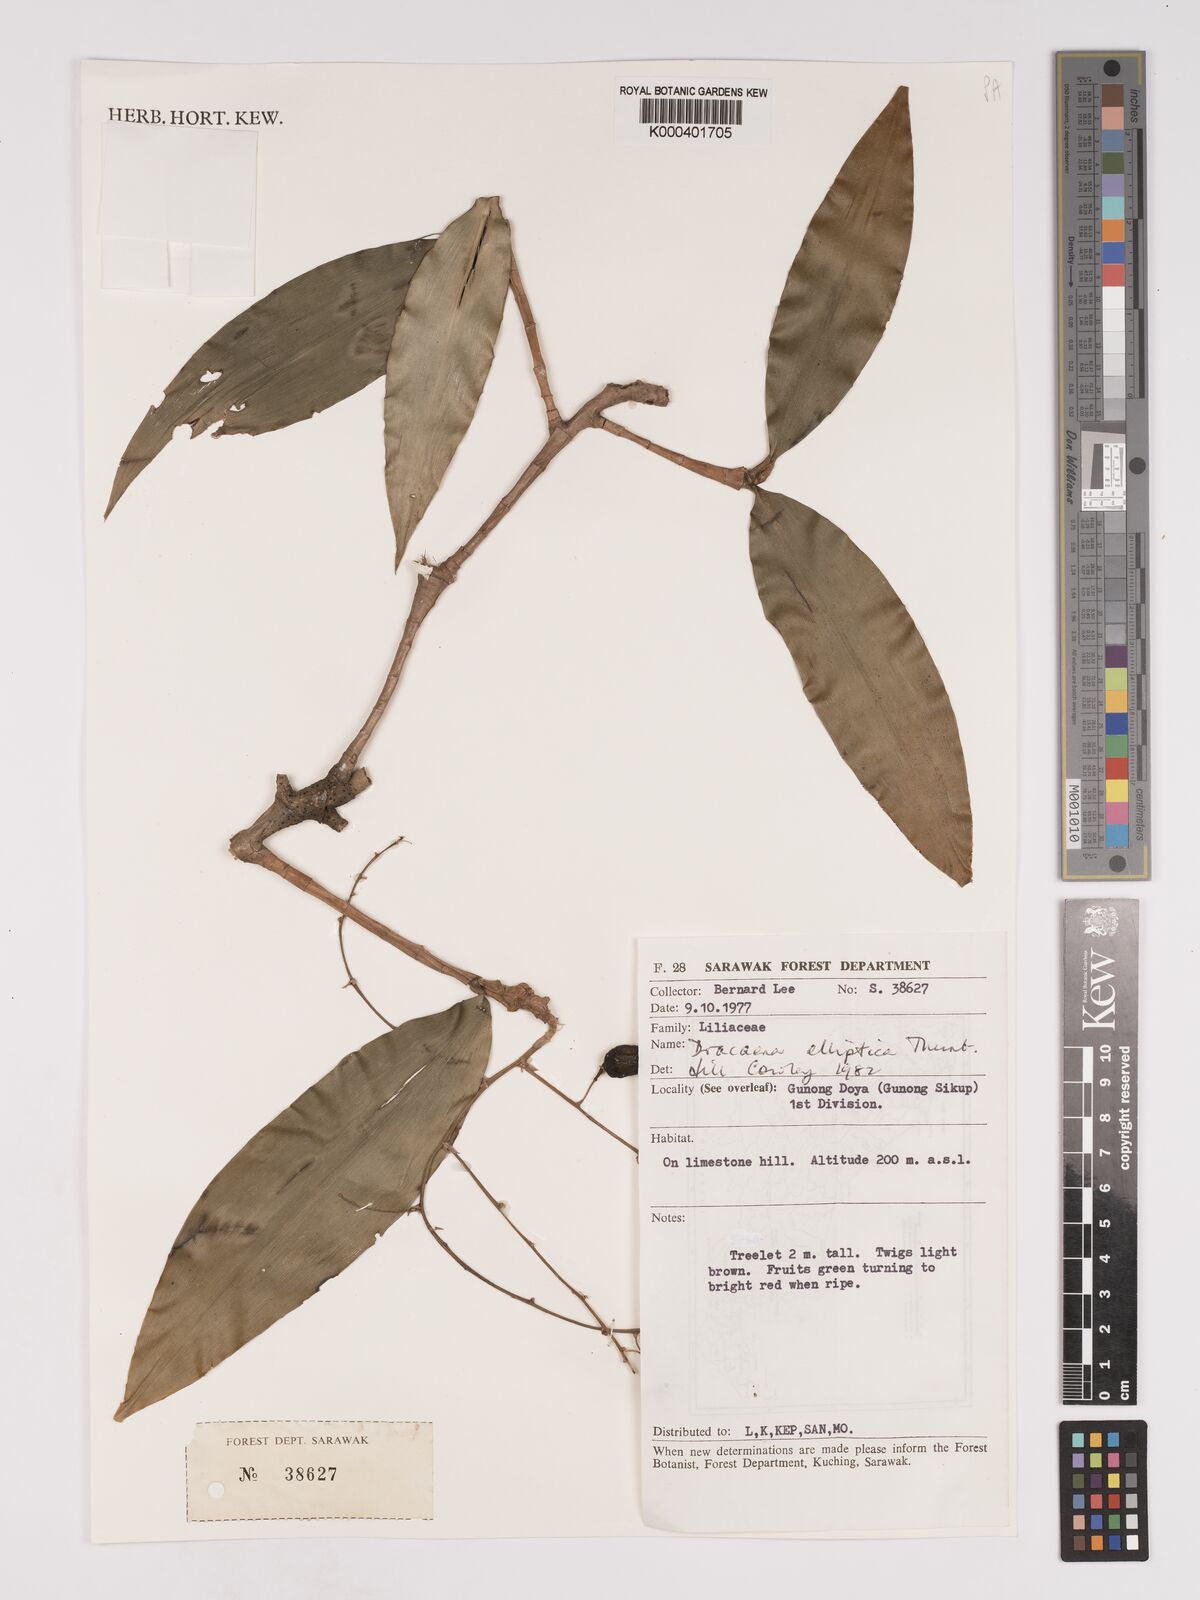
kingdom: Plantae
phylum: Tracheophyta
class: Liliopsida
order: Asparagales
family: Asparagaceae
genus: Dracaena
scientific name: Dracaena elliptica
